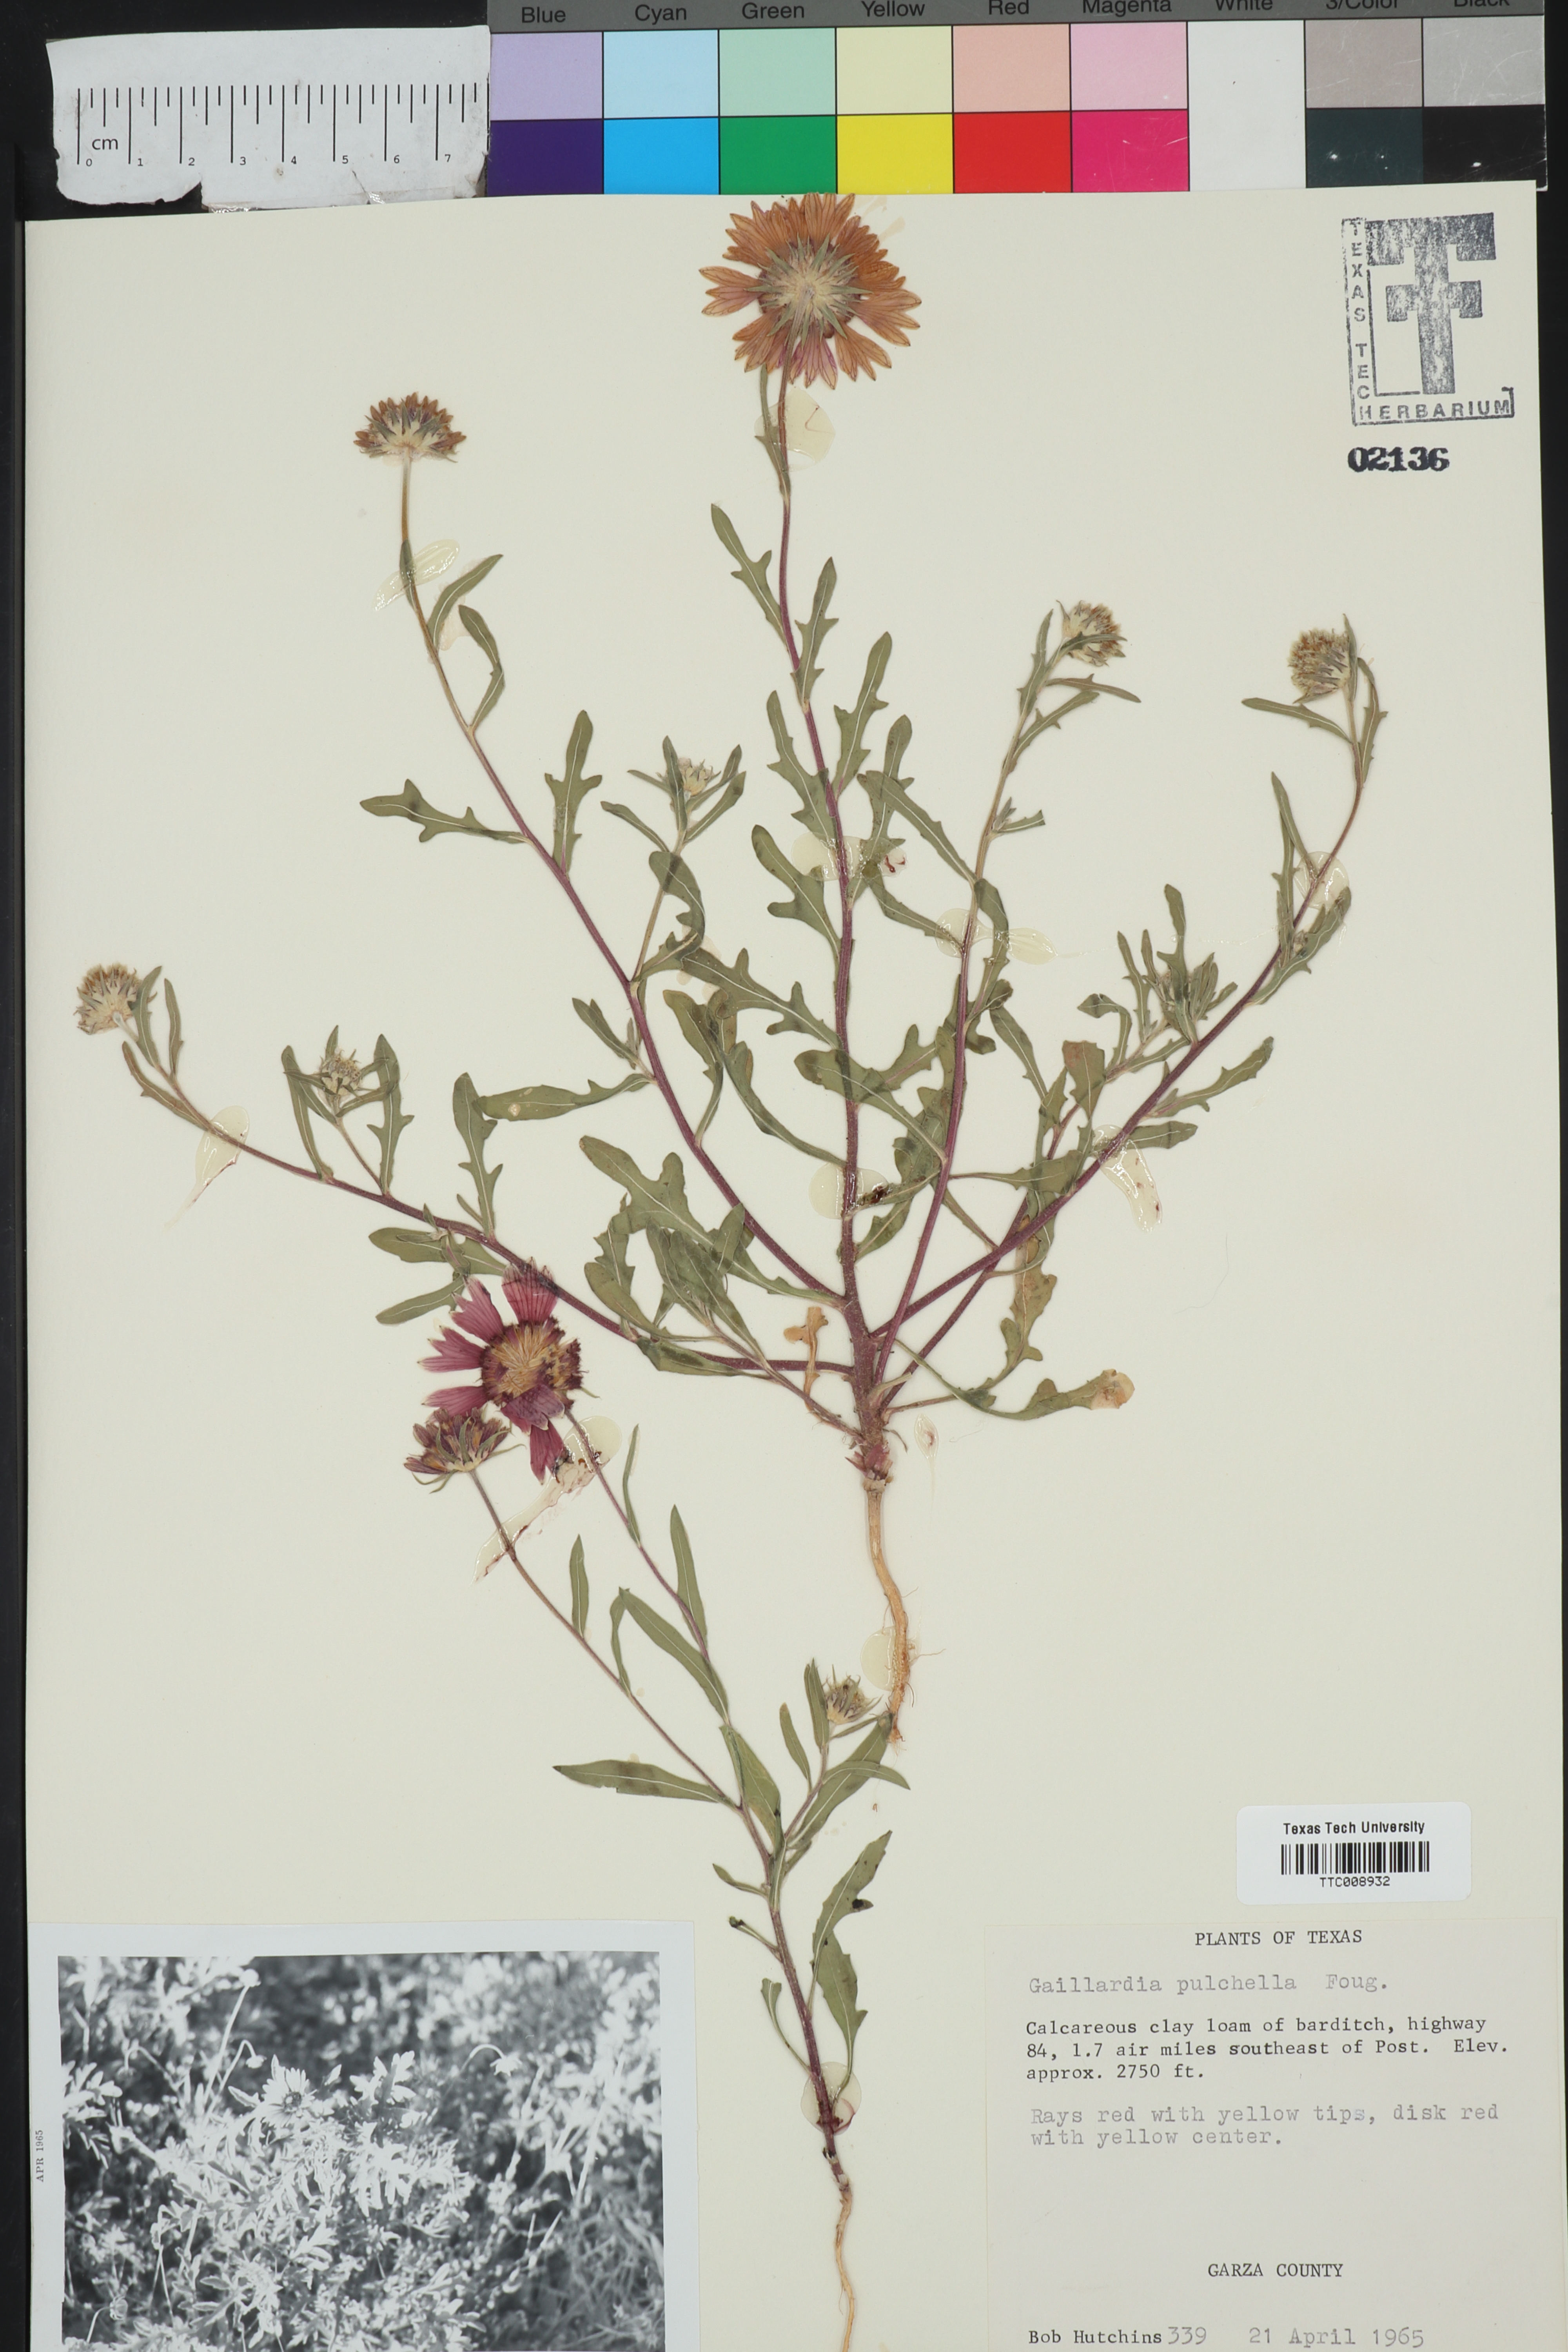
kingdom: Plantae
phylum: Tracheophyta
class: Magnoliopsida
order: Asterales
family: Asteraceae
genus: Gaillardia
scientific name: Gaillardia pulchella
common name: Firewheel
